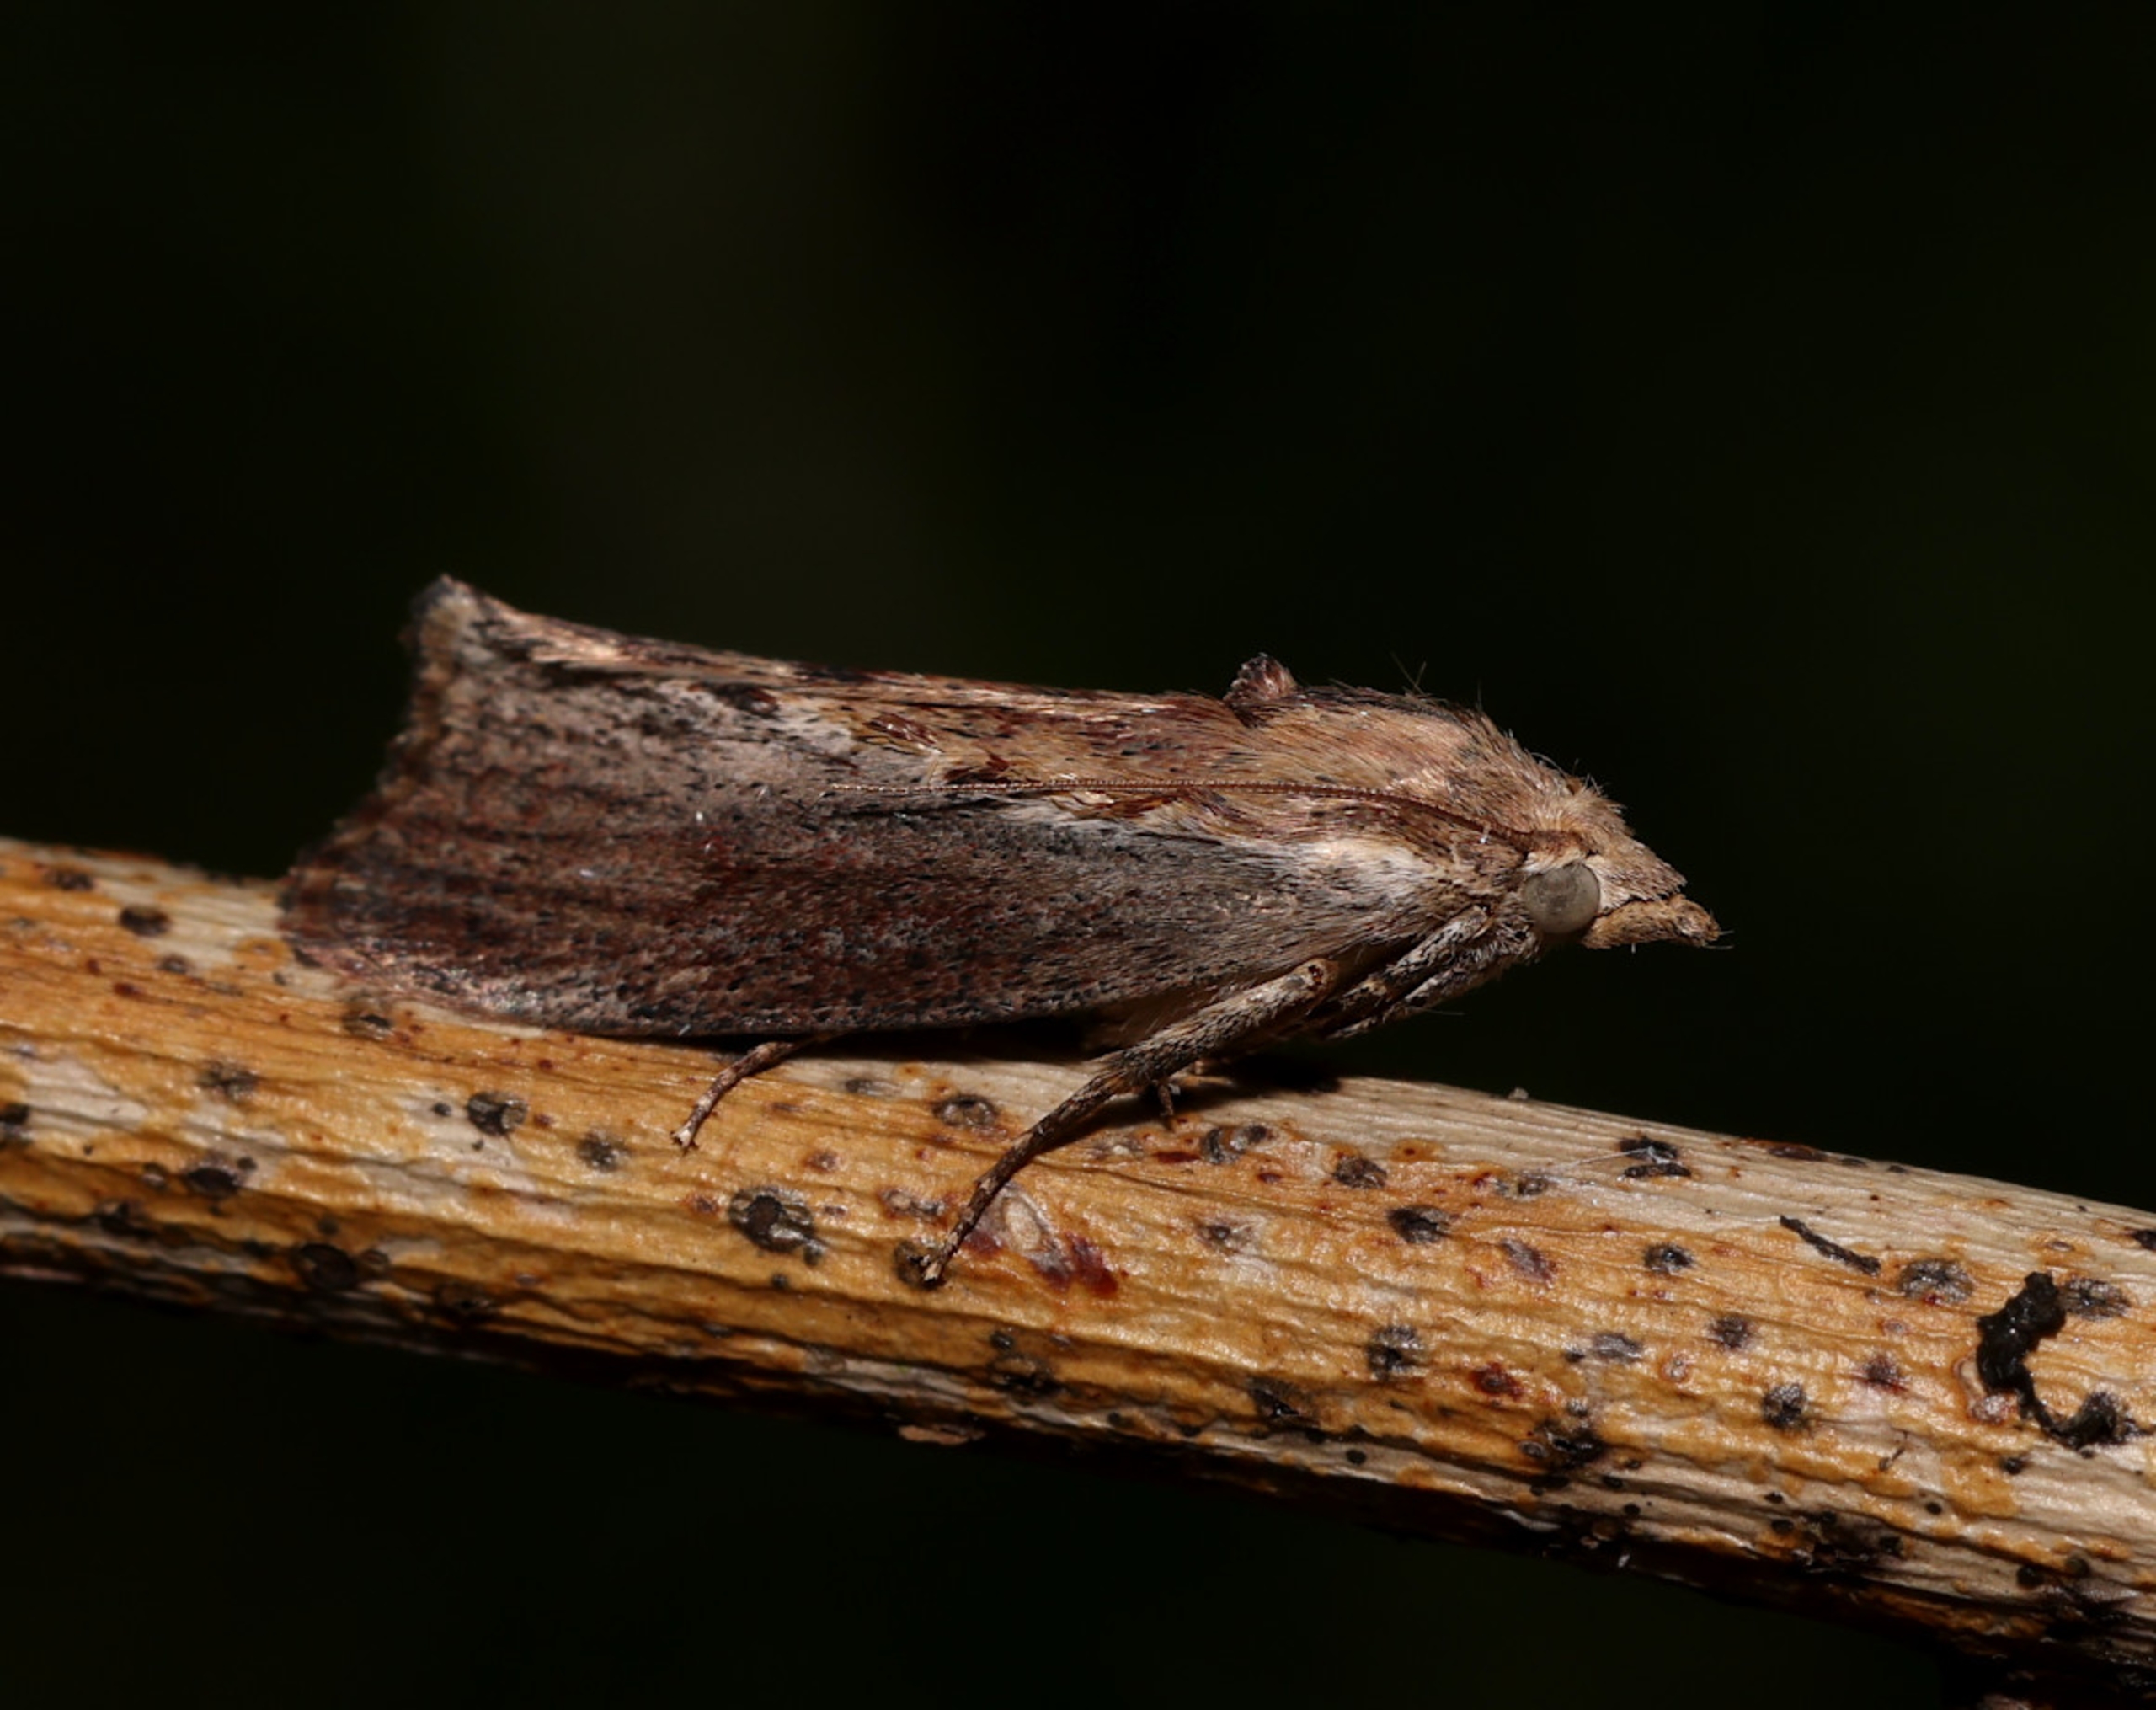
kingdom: Animalia
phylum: Arthropoda
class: Insecta
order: Lepidoptera
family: Pyralidae
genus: Galleria
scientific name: Galleria mellonella
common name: Stort voksmøl
